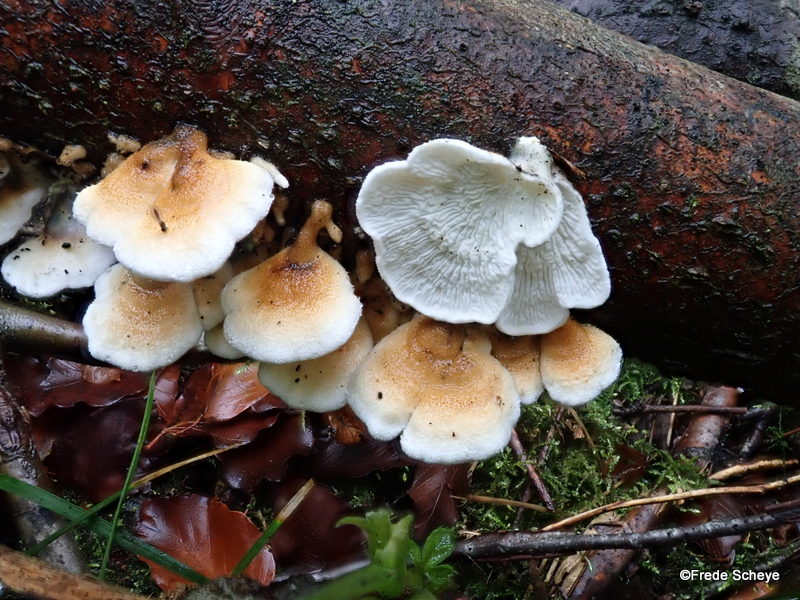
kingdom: Fungi
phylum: Basidiomycota
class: Agaricomycetes
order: Amylocorticiales
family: Amylocorticiaceae
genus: Plicaturopsis
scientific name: Plicaturopsis crispa
